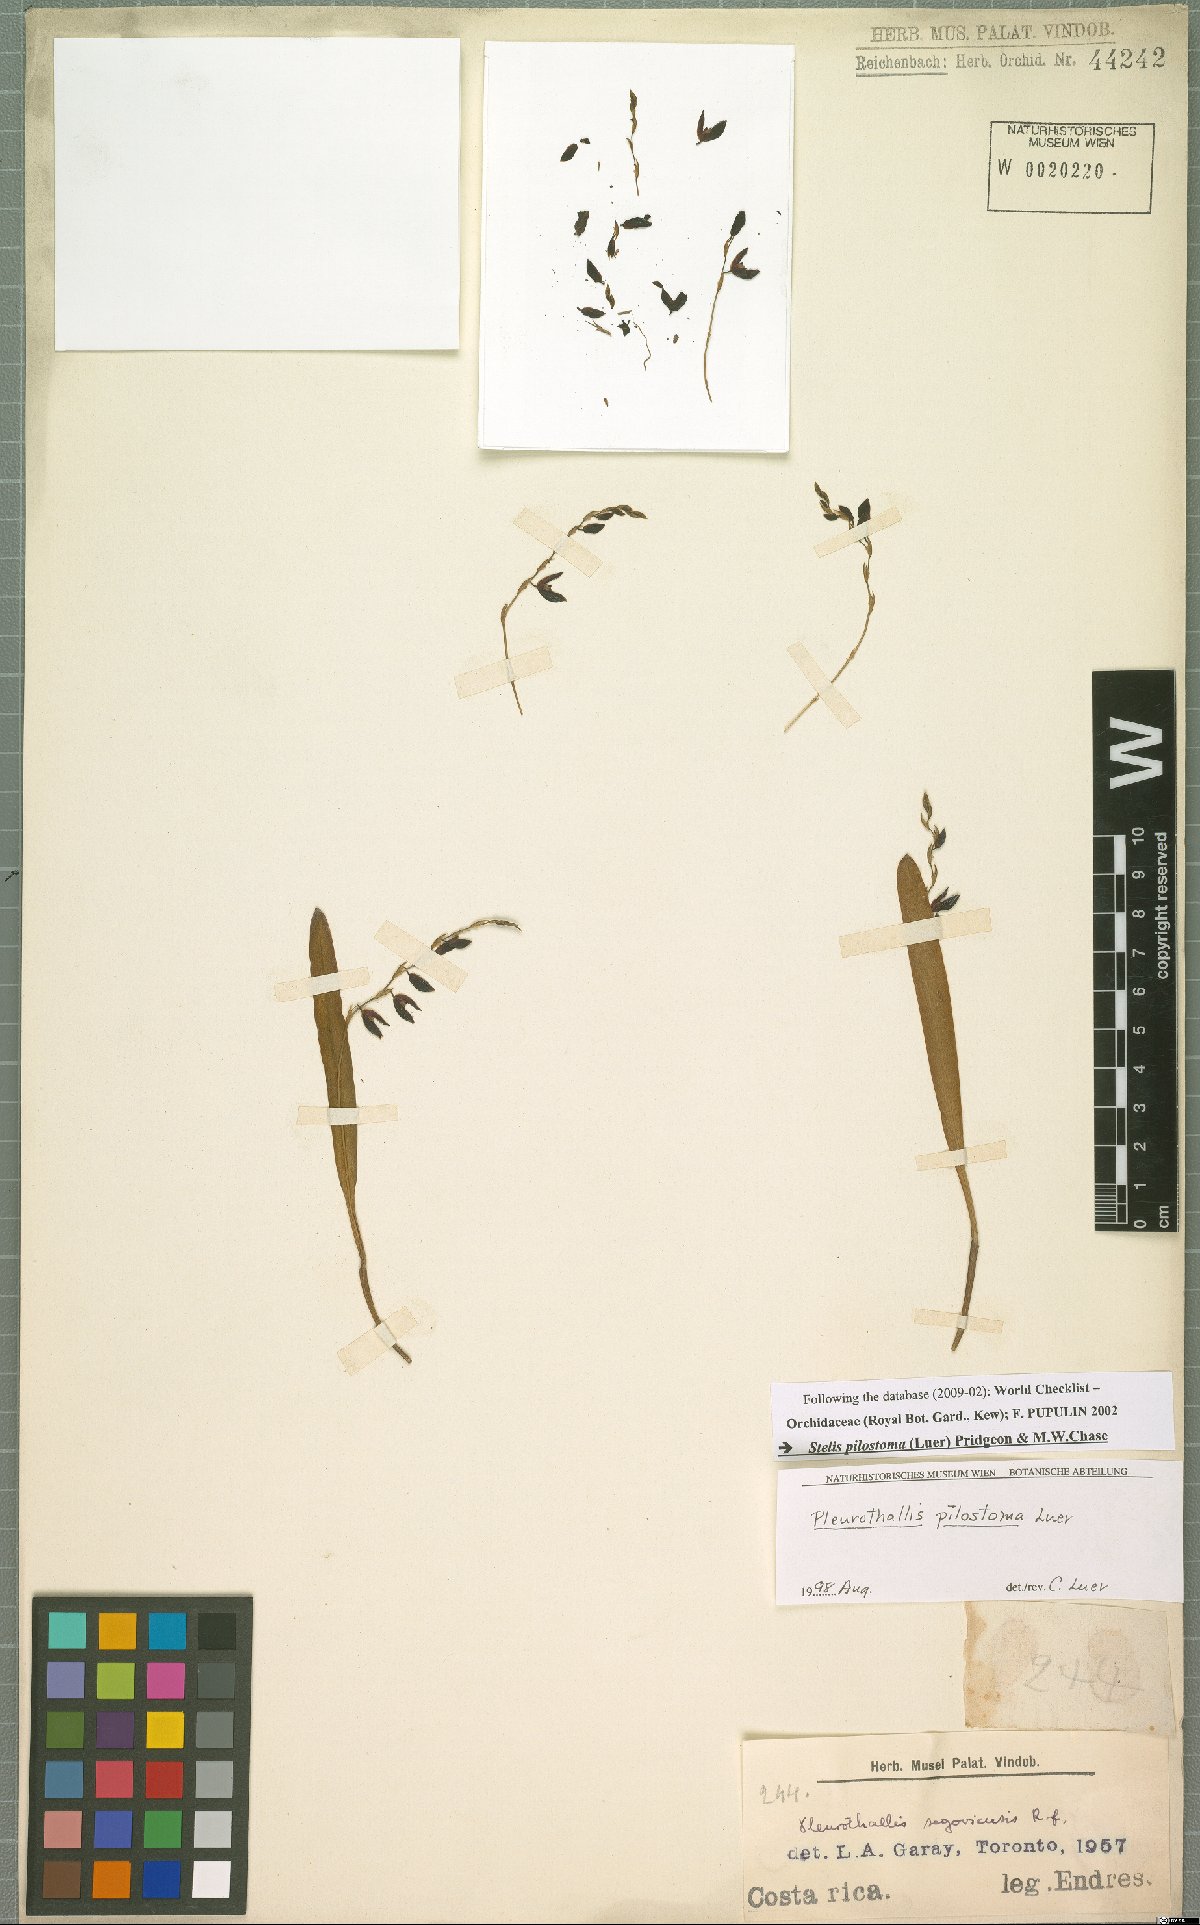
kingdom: Plantae
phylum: Tracheophyta
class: Liliopsida
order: Asparagales
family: Orchidaceae
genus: Stelis
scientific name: Stelis pilostoma
